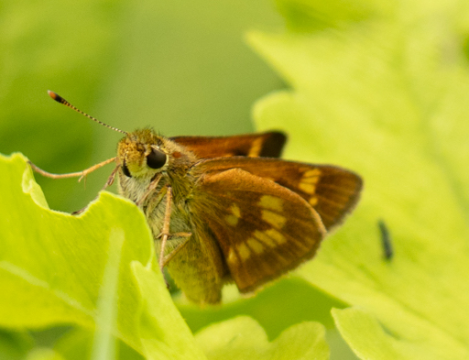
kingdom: Animalia
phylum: Arthropoda
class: Insecta
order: Lepidoptera
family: Hesperiidae
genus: Polites
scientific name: Polites
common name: Long Dash Skipper
